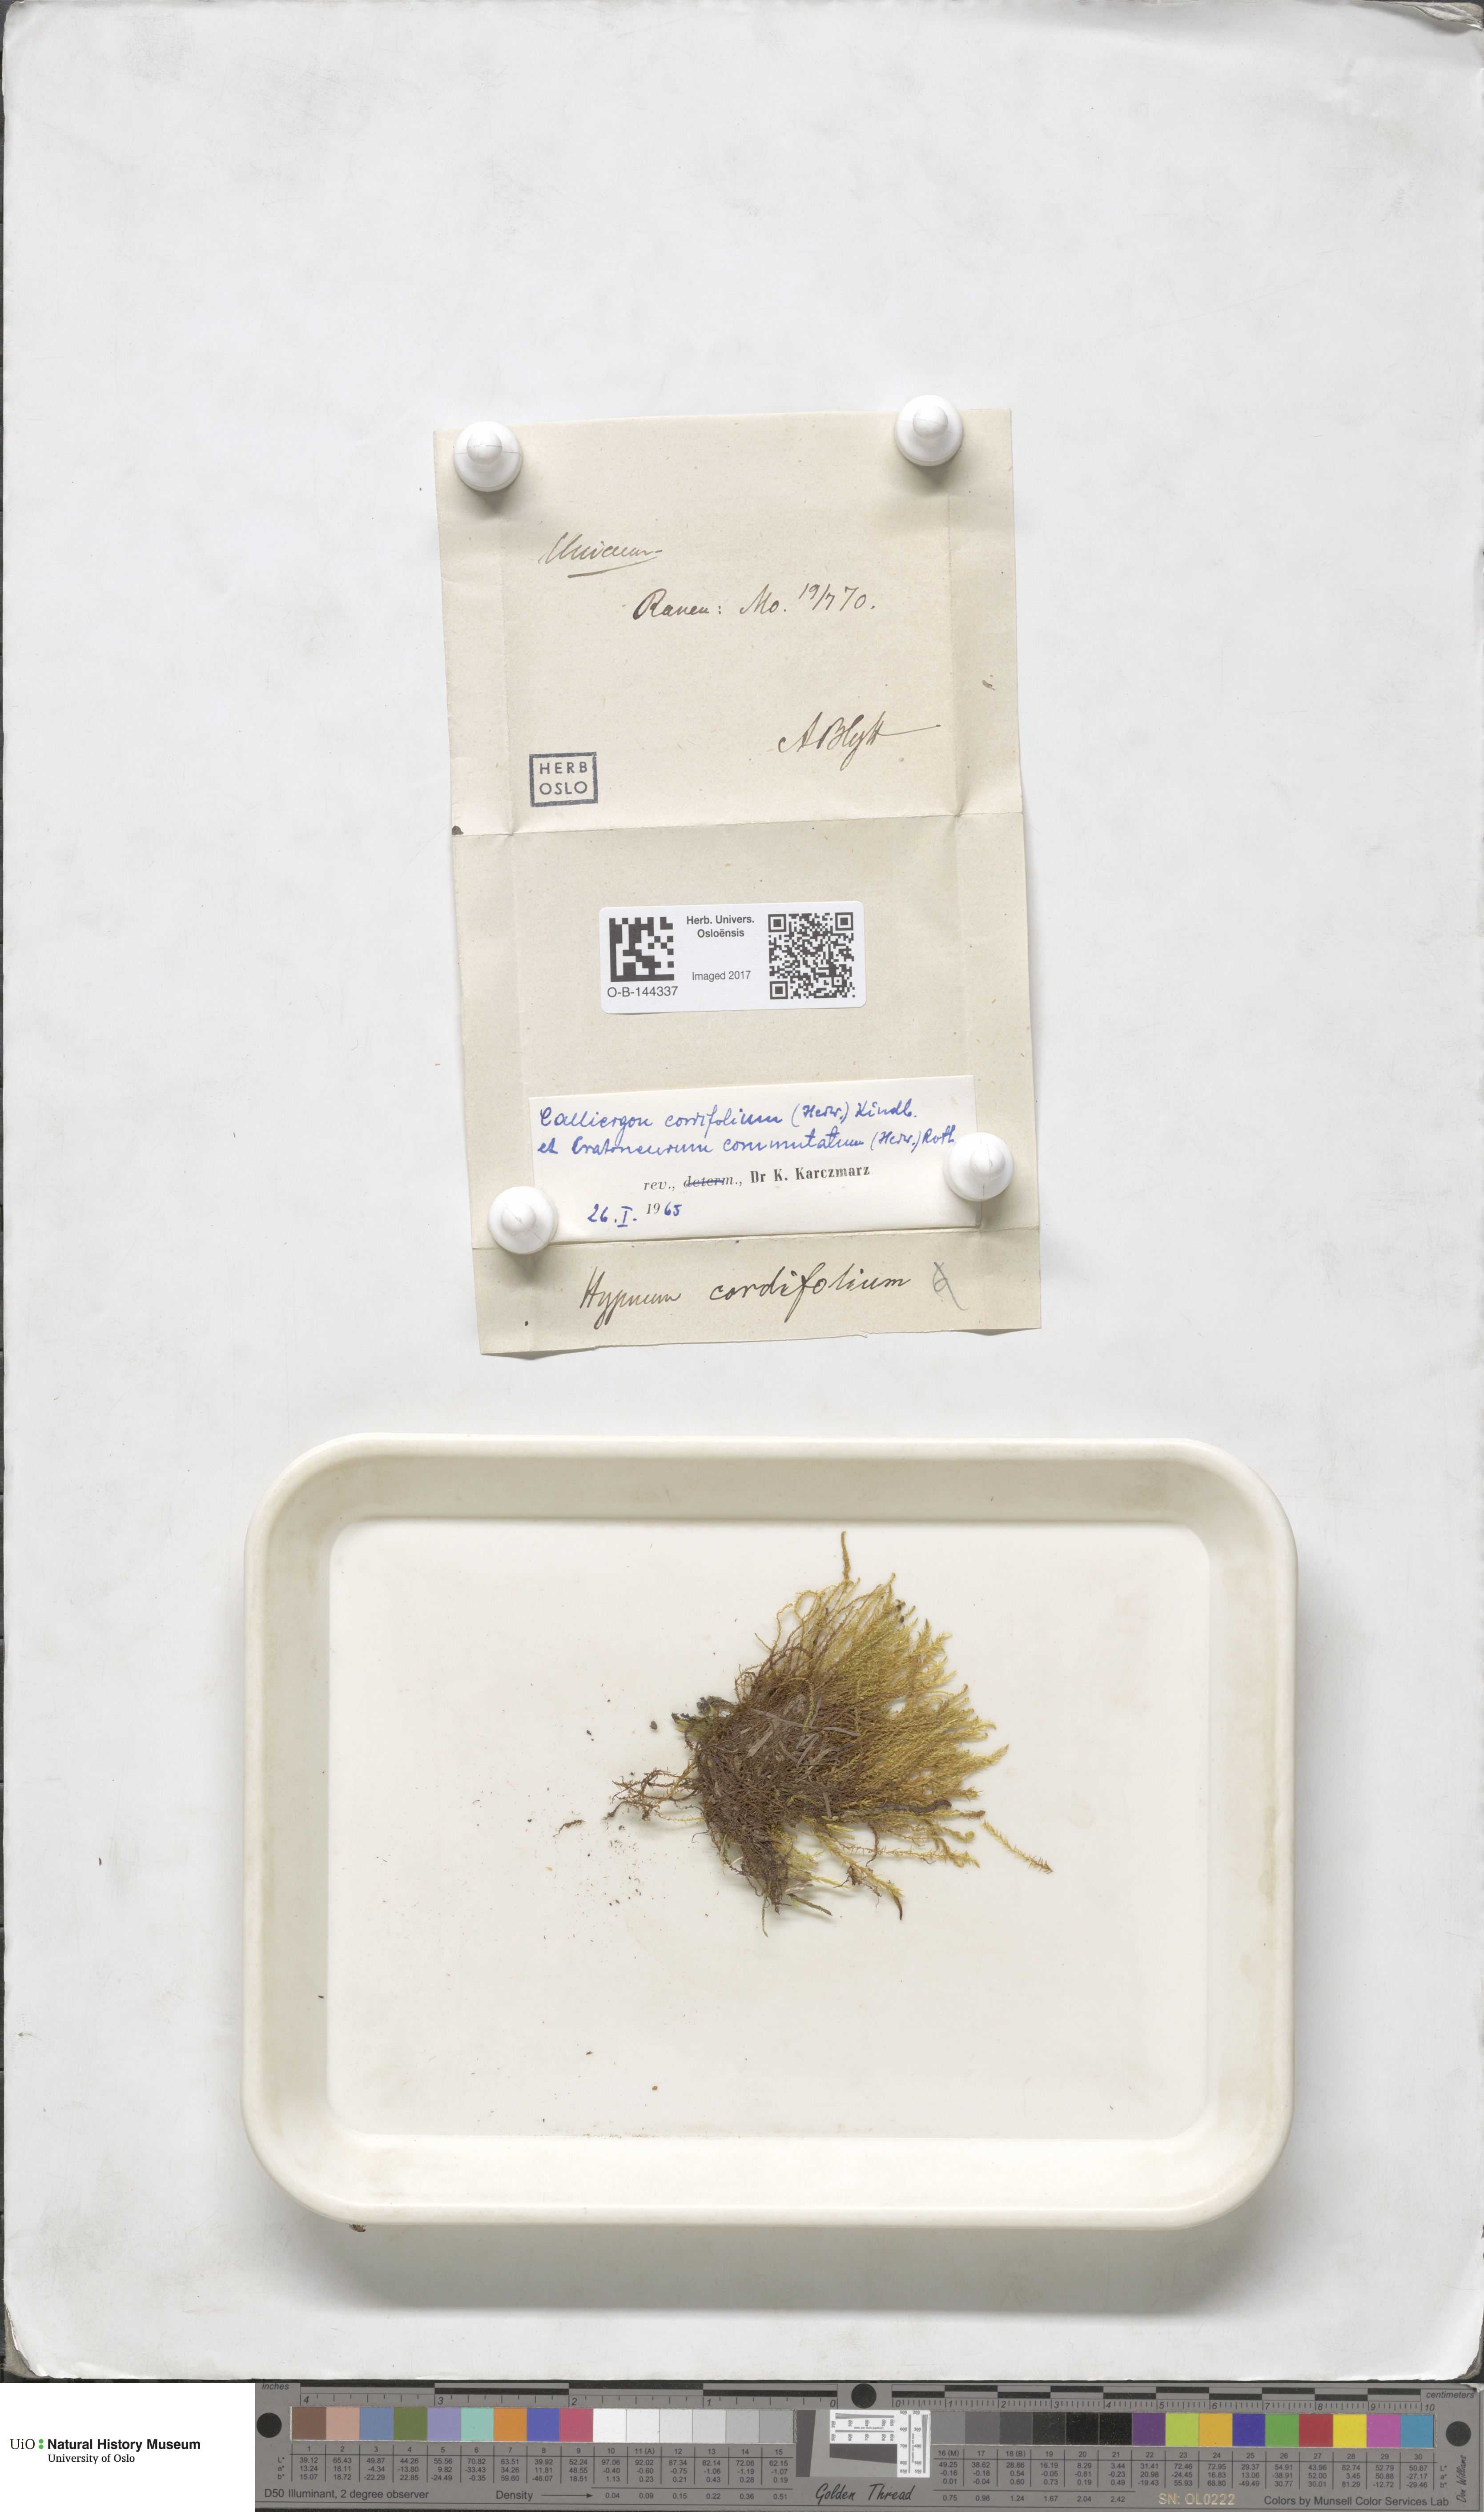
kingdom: Plantae
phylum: Bryophyta
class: Bryopsida
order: Hypnales
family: Calliergonaceae
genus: Calliergon
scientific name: Calliergon cordifolium
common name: Heart-leaved spear moss
